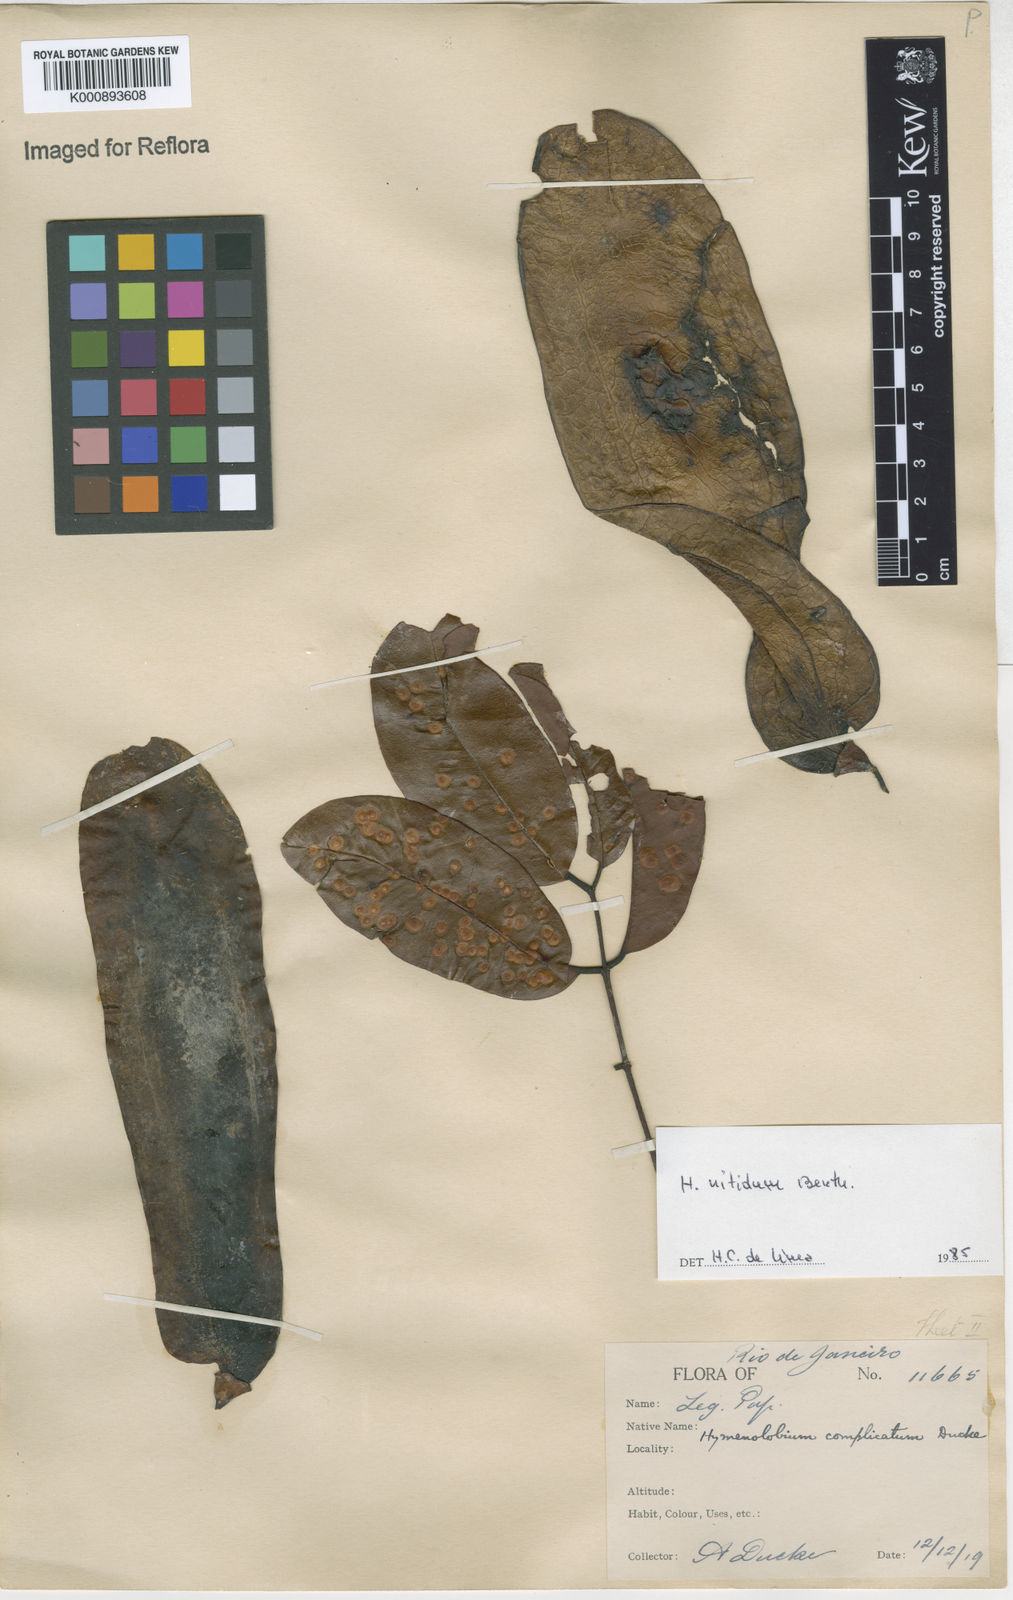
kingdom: Plantae
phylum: Tracheophyta
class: Magnoliopsida
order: Fabales
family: Fabaceae
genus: Hymenolobium
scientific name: Hymenolobium nitidum
